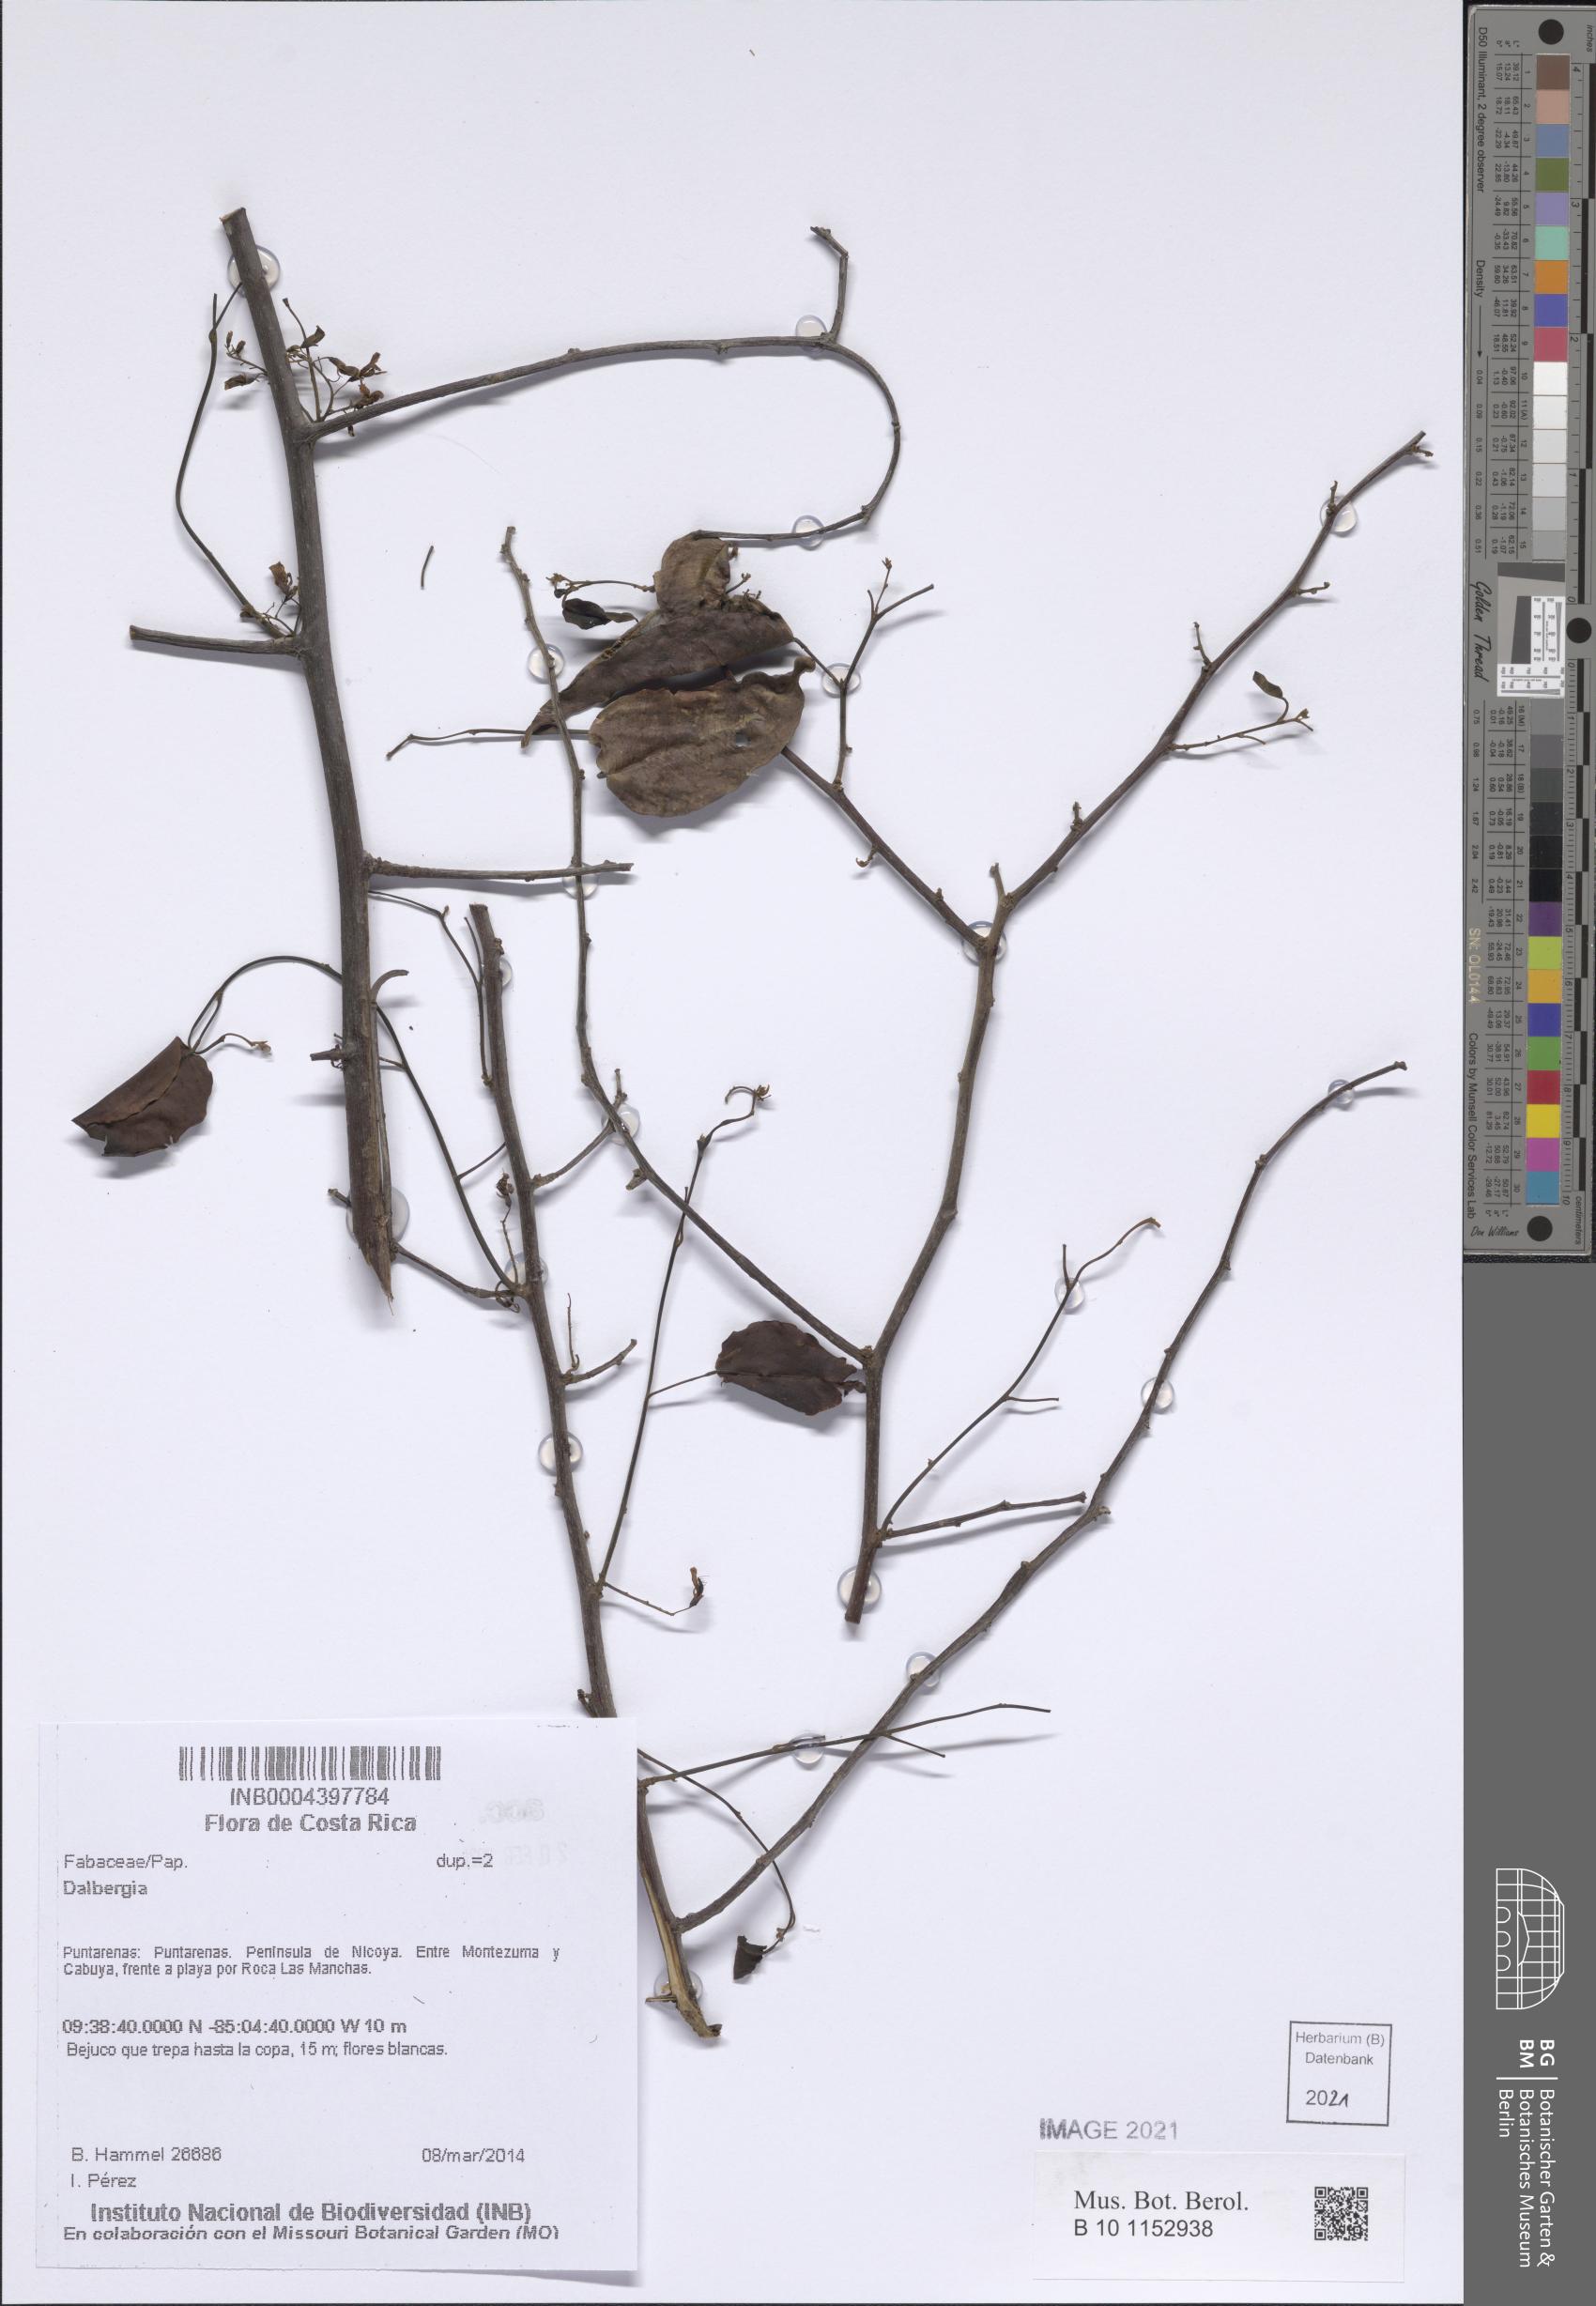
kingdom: Plantae
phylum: Tracheophyta
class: Magnoliopsida
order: Fabales
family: Fabaceae
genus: Dalbergia
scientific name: Dalbergia
